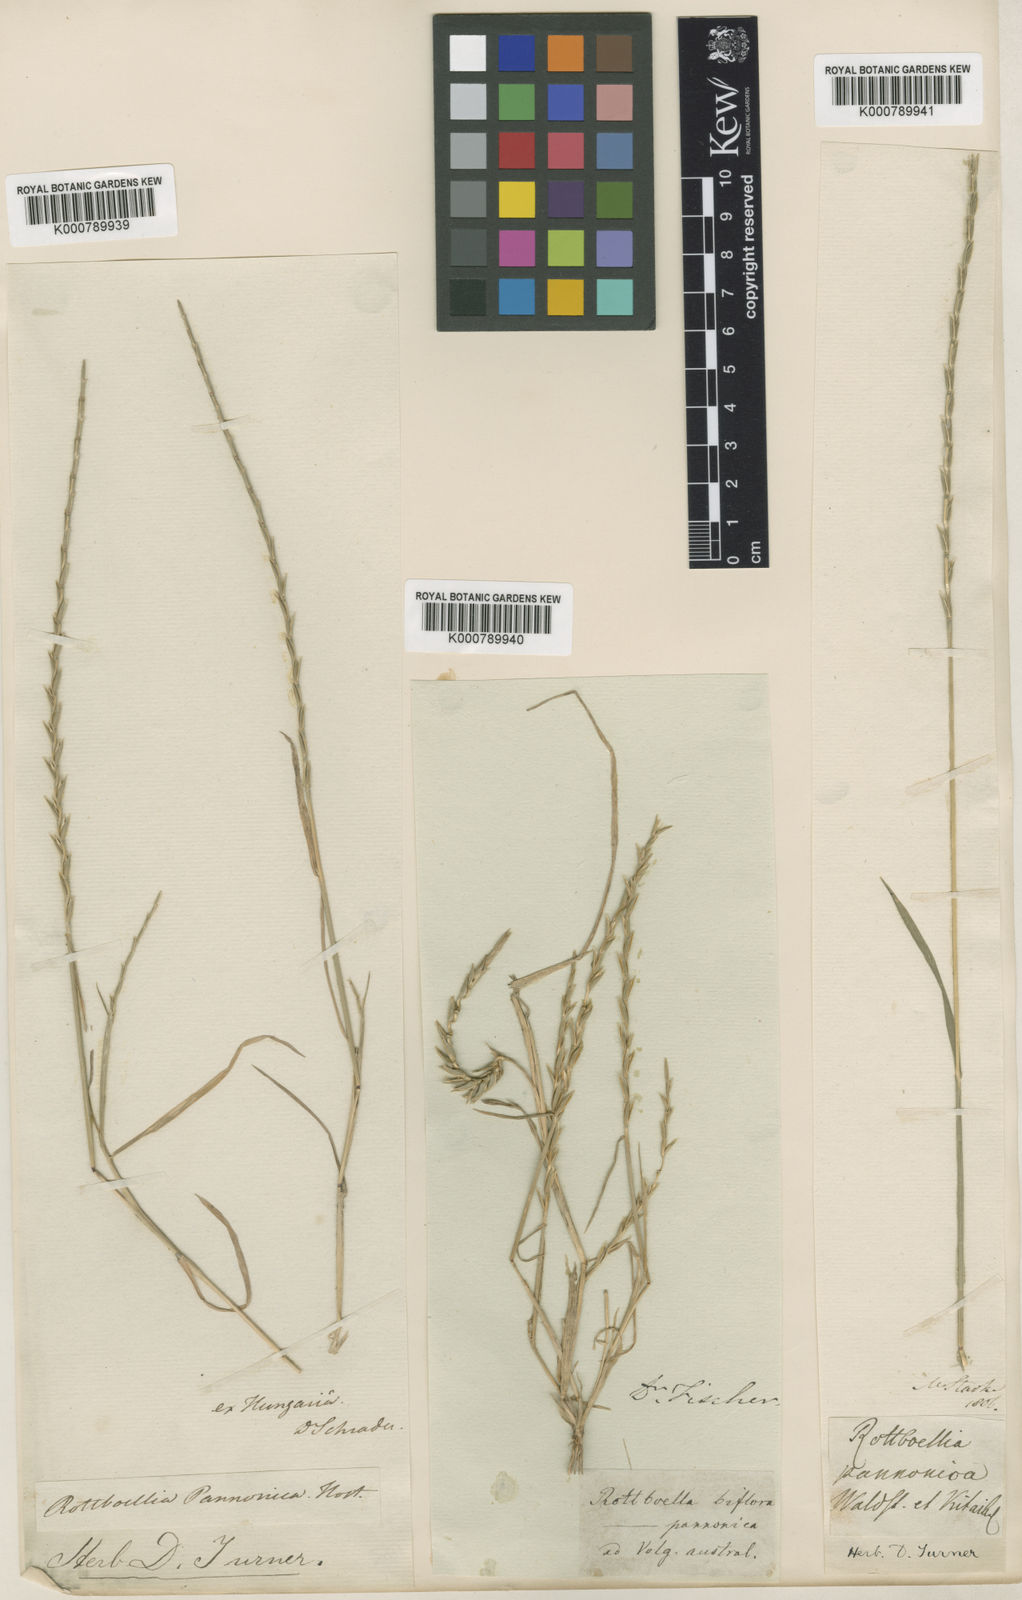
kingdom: Plantae
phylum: Tracheophyta
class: Liliopsida
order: Poales
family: Poaceae
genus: Pholiurus
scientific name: Pholiurus pannonicus
